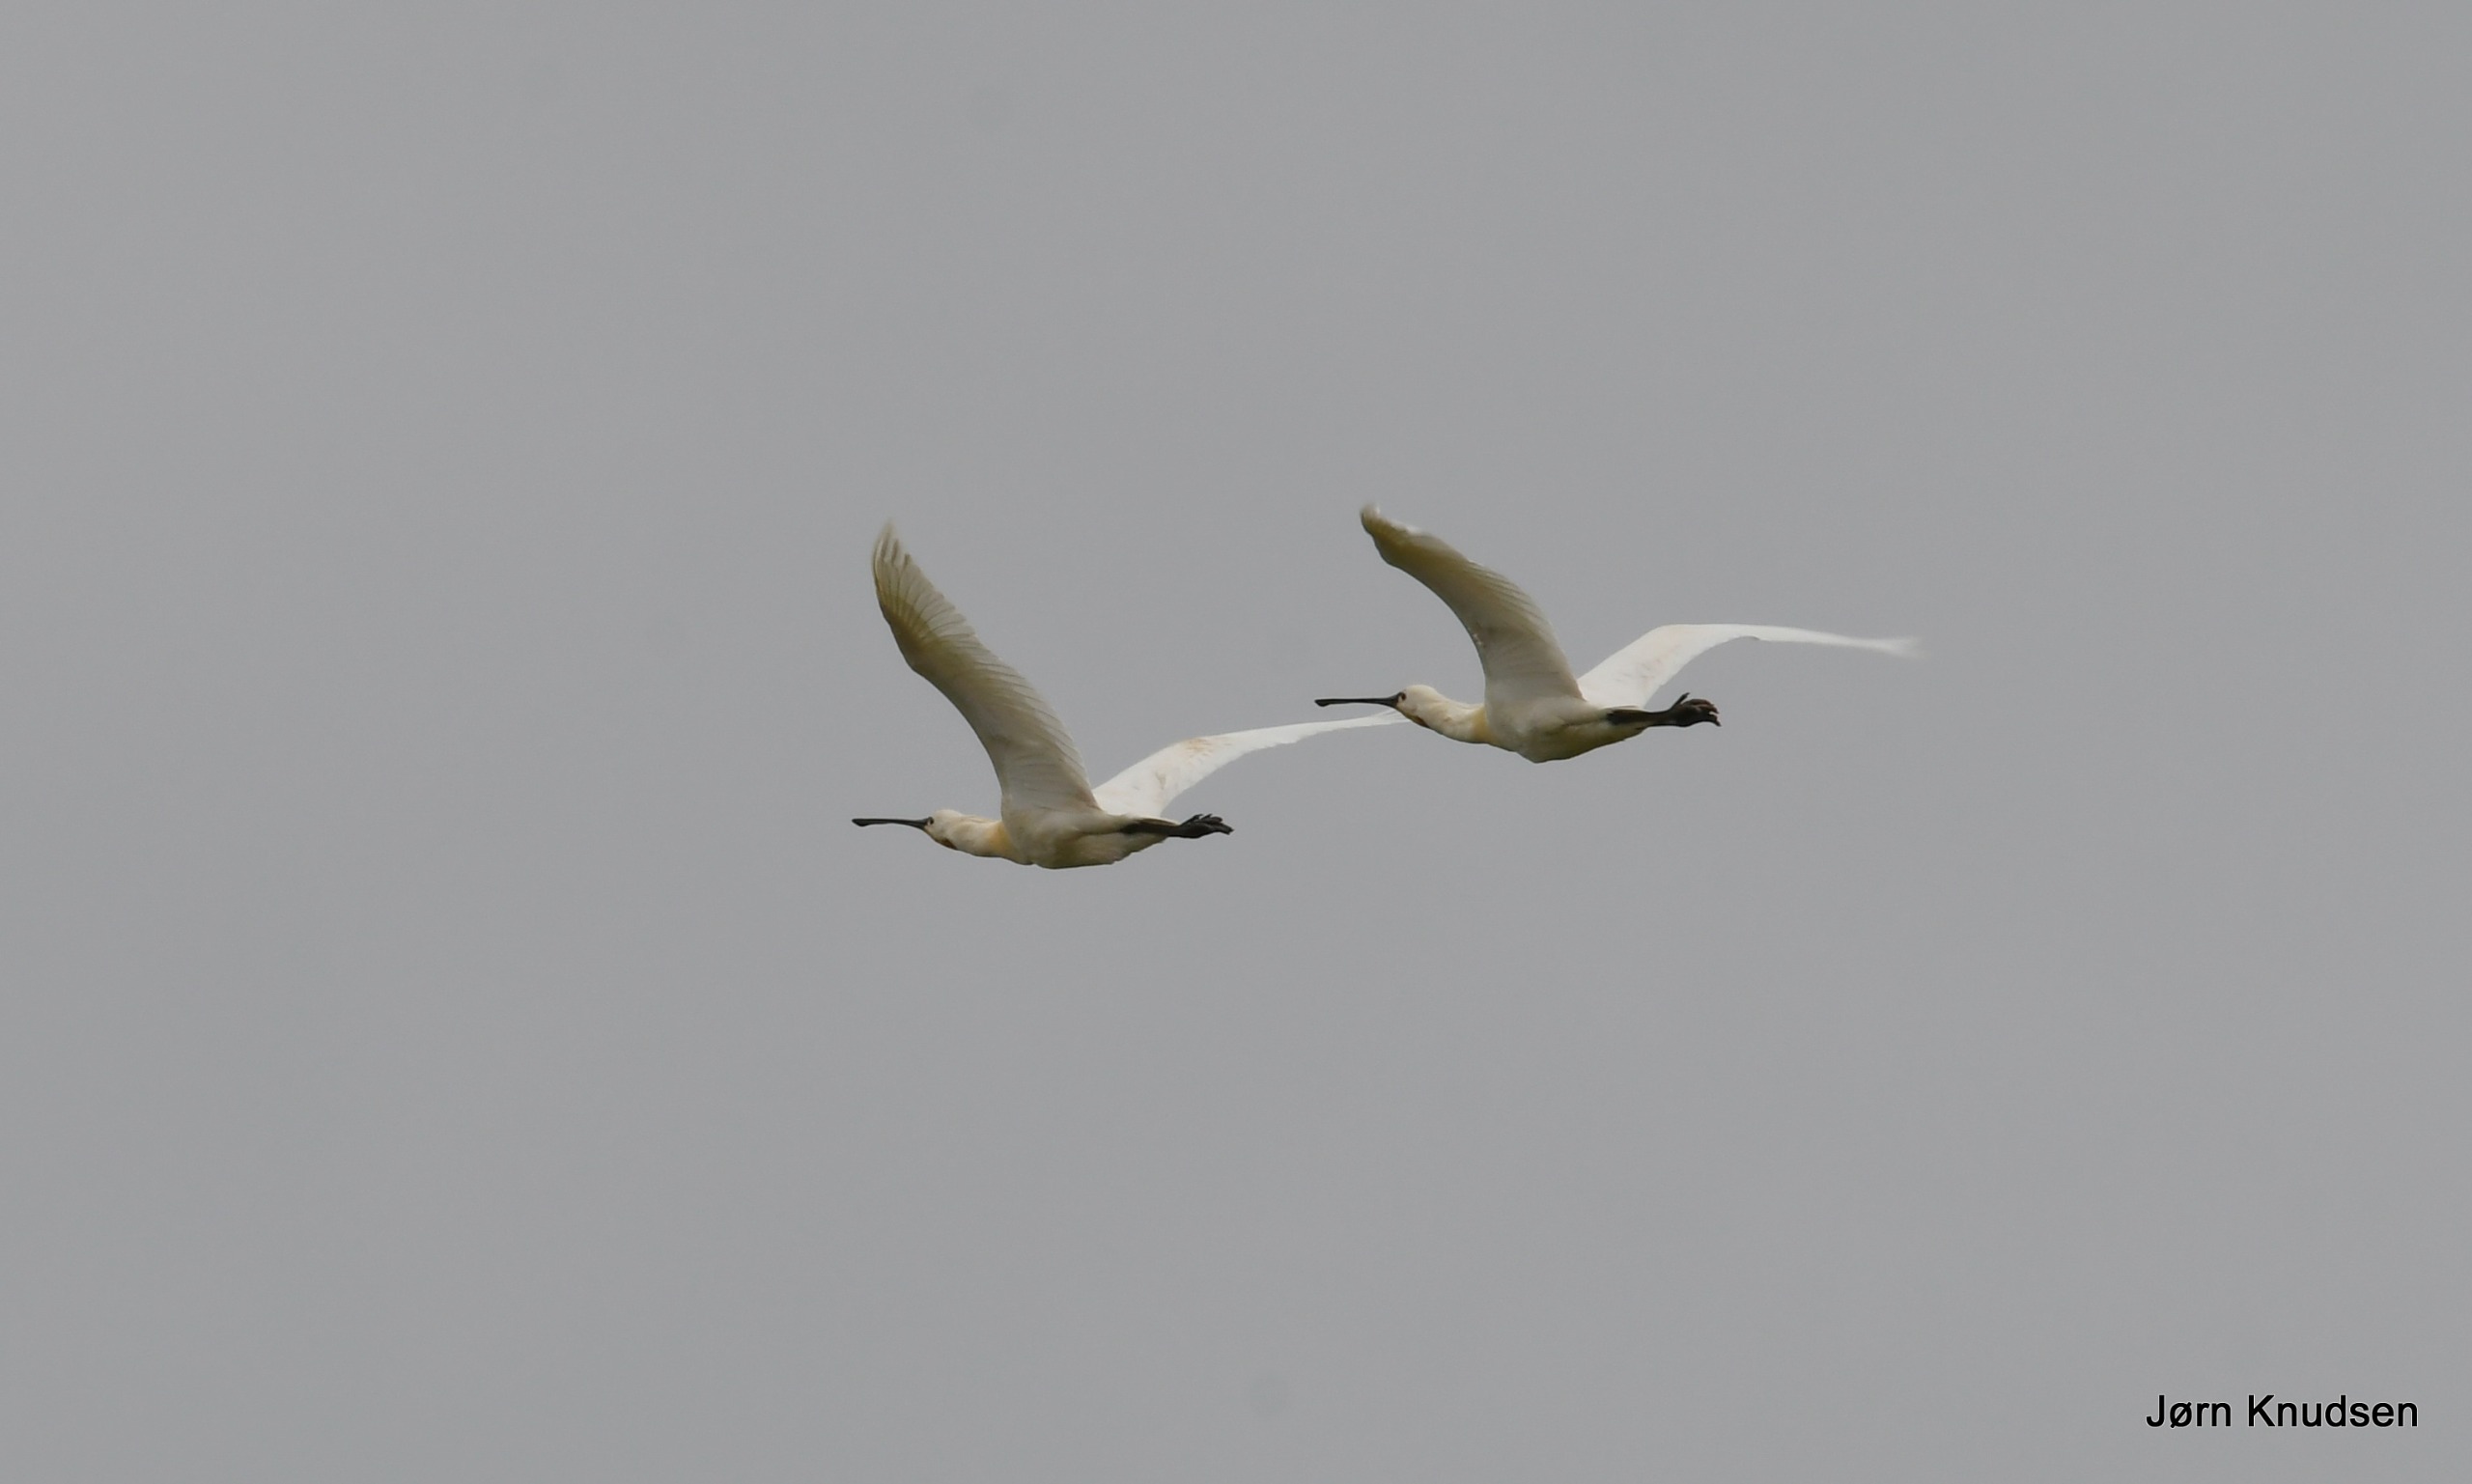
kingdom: Animalia
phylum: Chordata
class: Aves
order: Pelecaniformes
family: Threskiornithidae
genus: Platalea
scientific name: Platalea leucorodia
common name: Skestork
